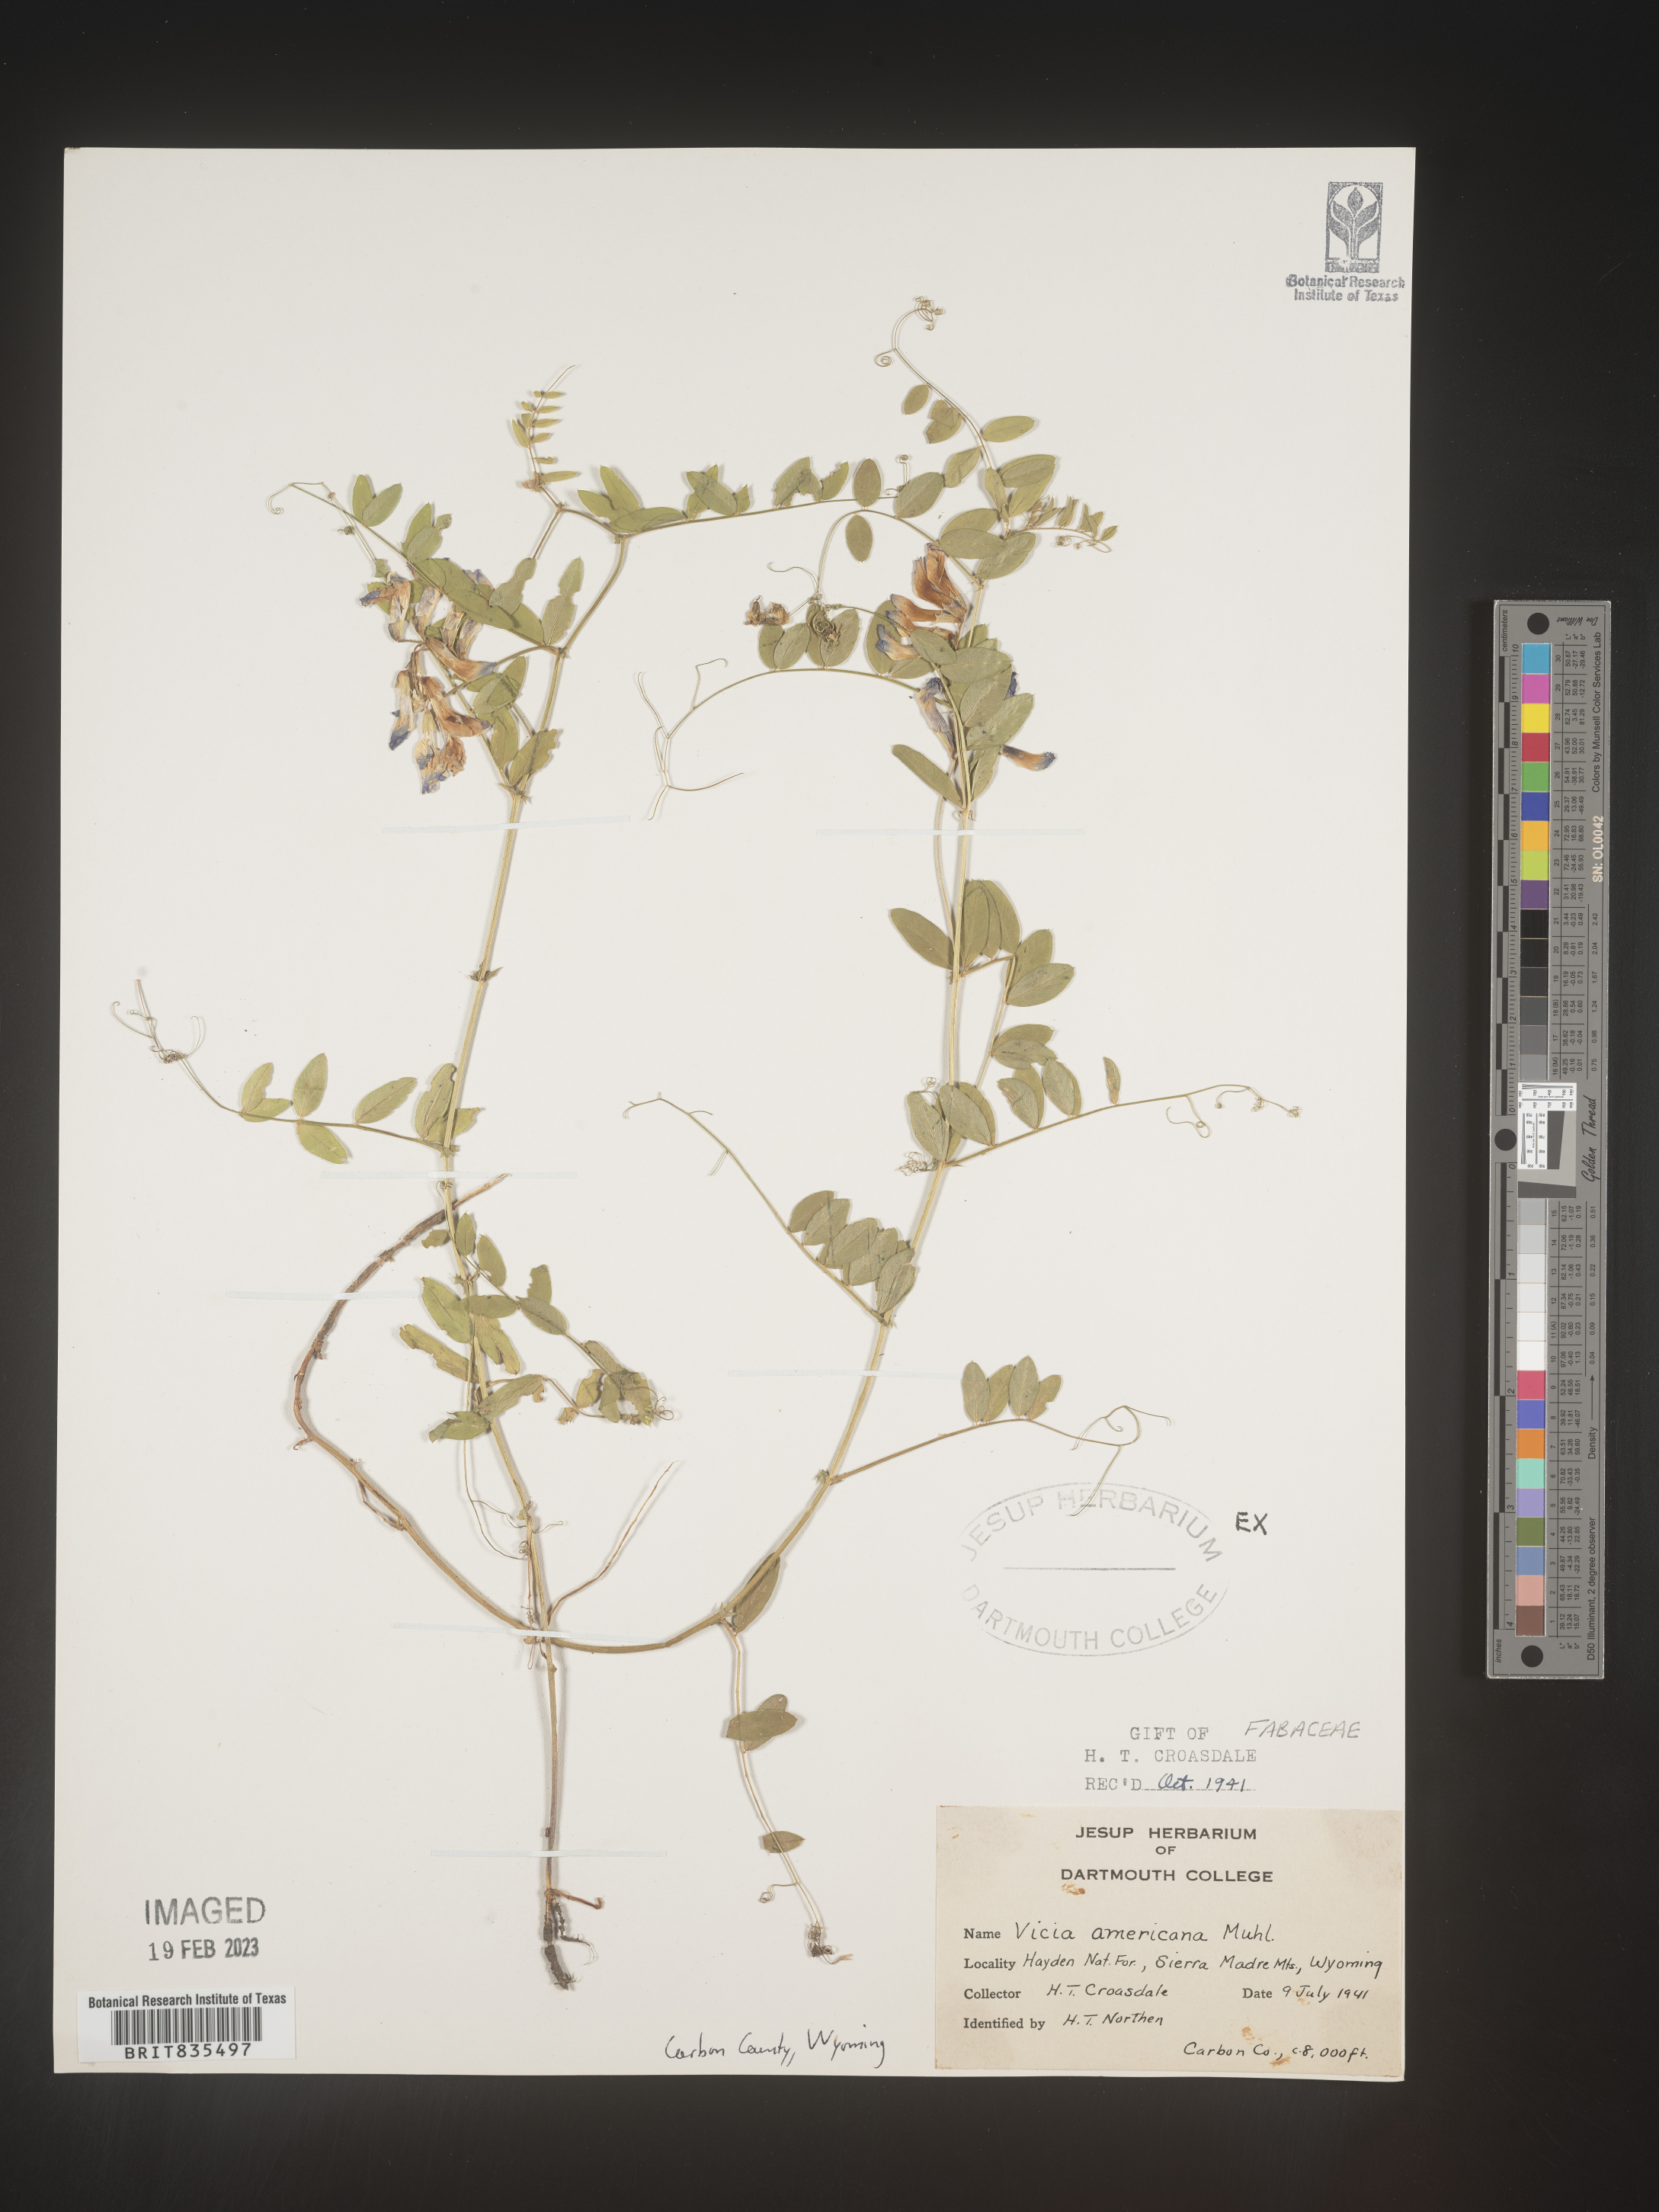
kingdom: Plantae
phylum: Tracheophyta
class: Magnoliopsida
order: Fabales
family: Fabaceae
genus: Vicia
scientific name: Vicia americana
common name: American vetch
